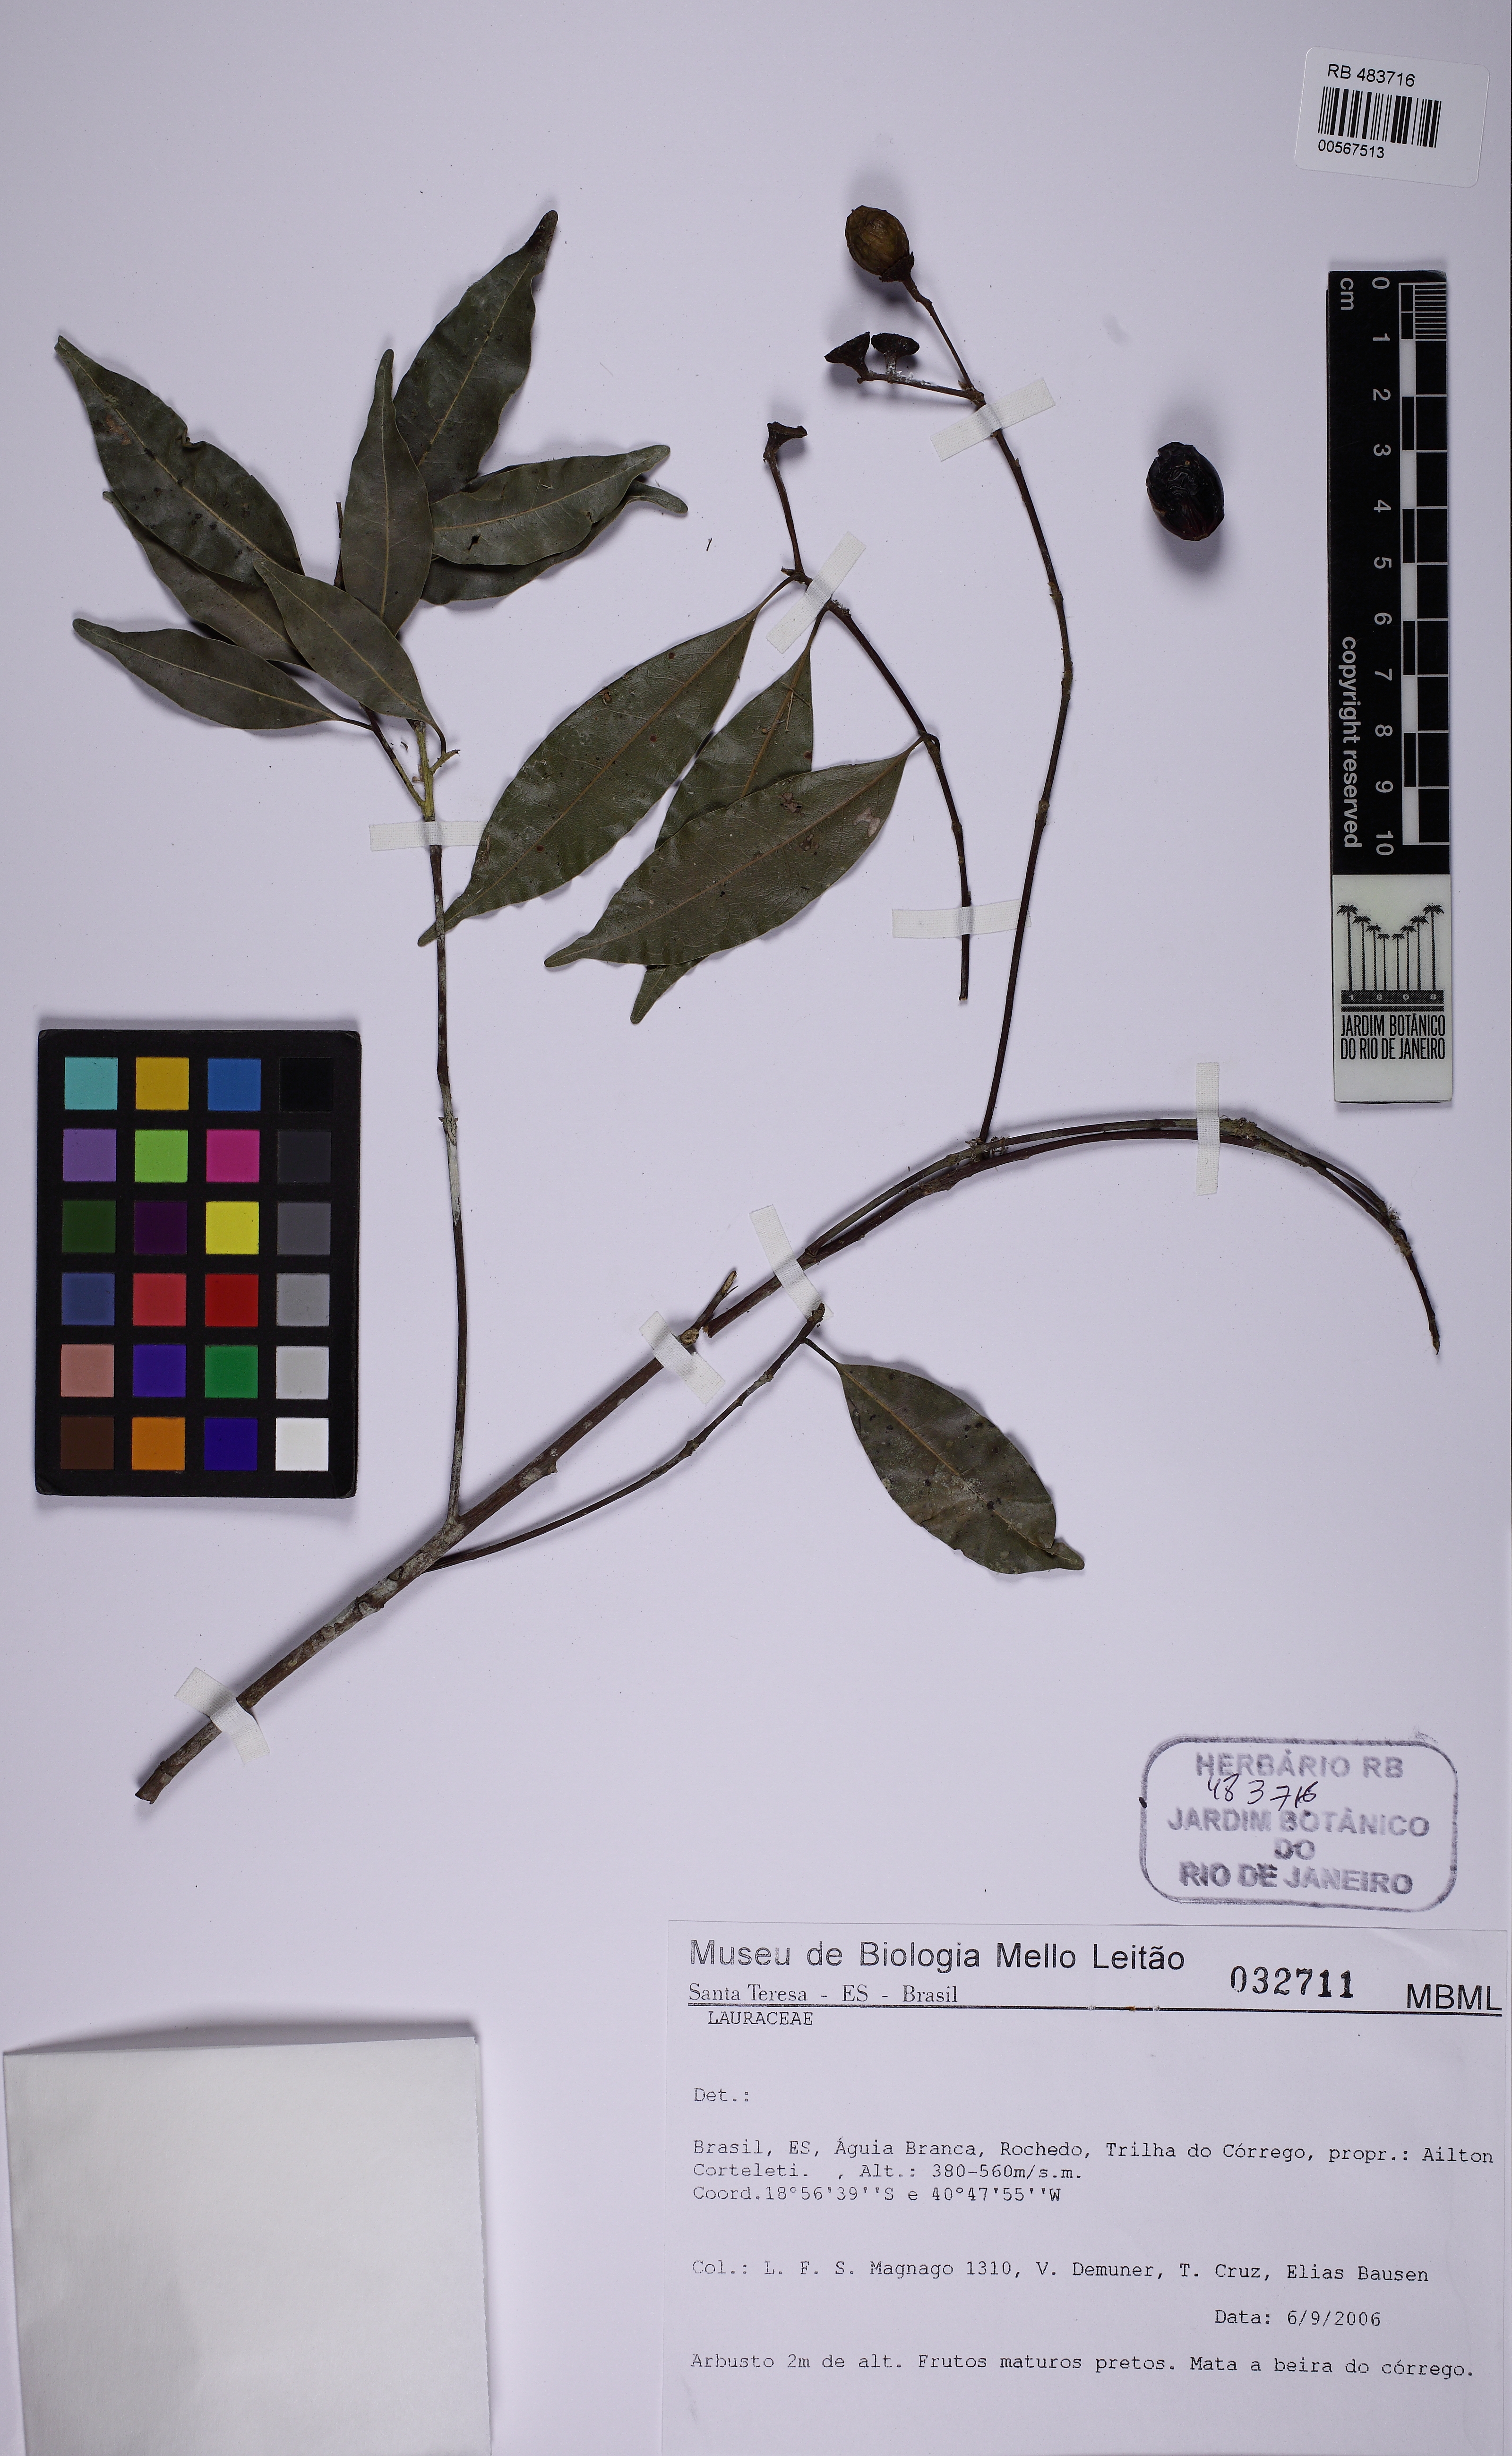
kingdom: Plantae
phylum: Tracheophyta
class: Magnoliopsida
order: Laurales
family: Lauraceae
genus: Mespilodaphne
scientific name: Mespilodaphne indecora
